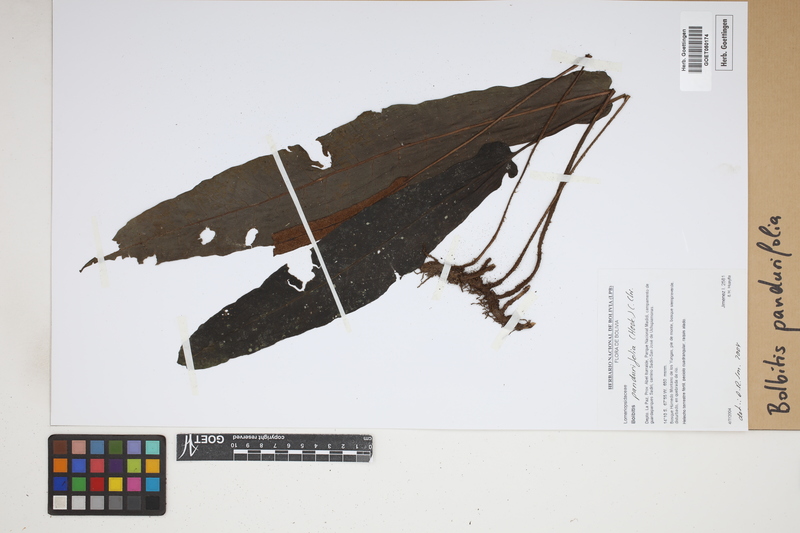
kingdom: Plantae
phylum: Tracheophyta
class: Polypodiopsida
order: Polypodiales
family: Dryopteridaceae
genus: Bolbitis
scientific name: Bolbitis pandurifolia
